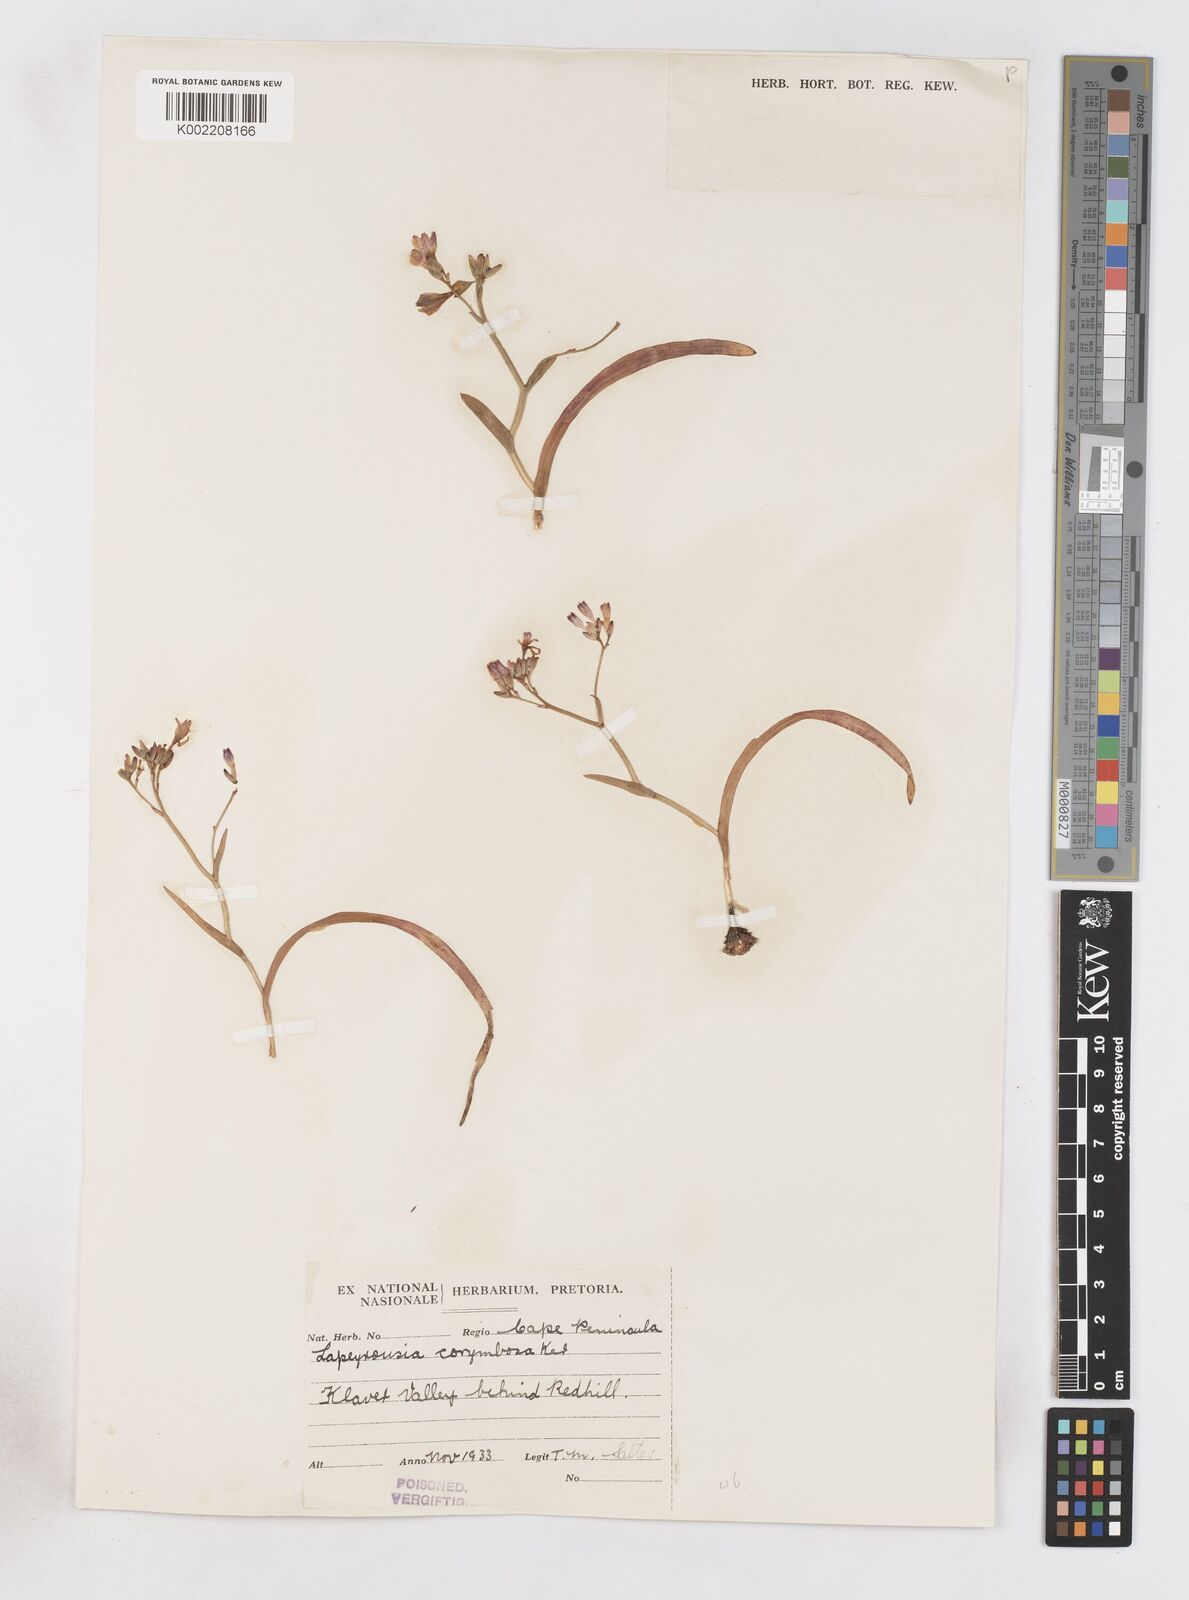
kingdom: Plantae
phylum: Tracheophyta
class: Liliopsida
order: Asparagales
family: Iridaceae
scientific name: Iridaceae
